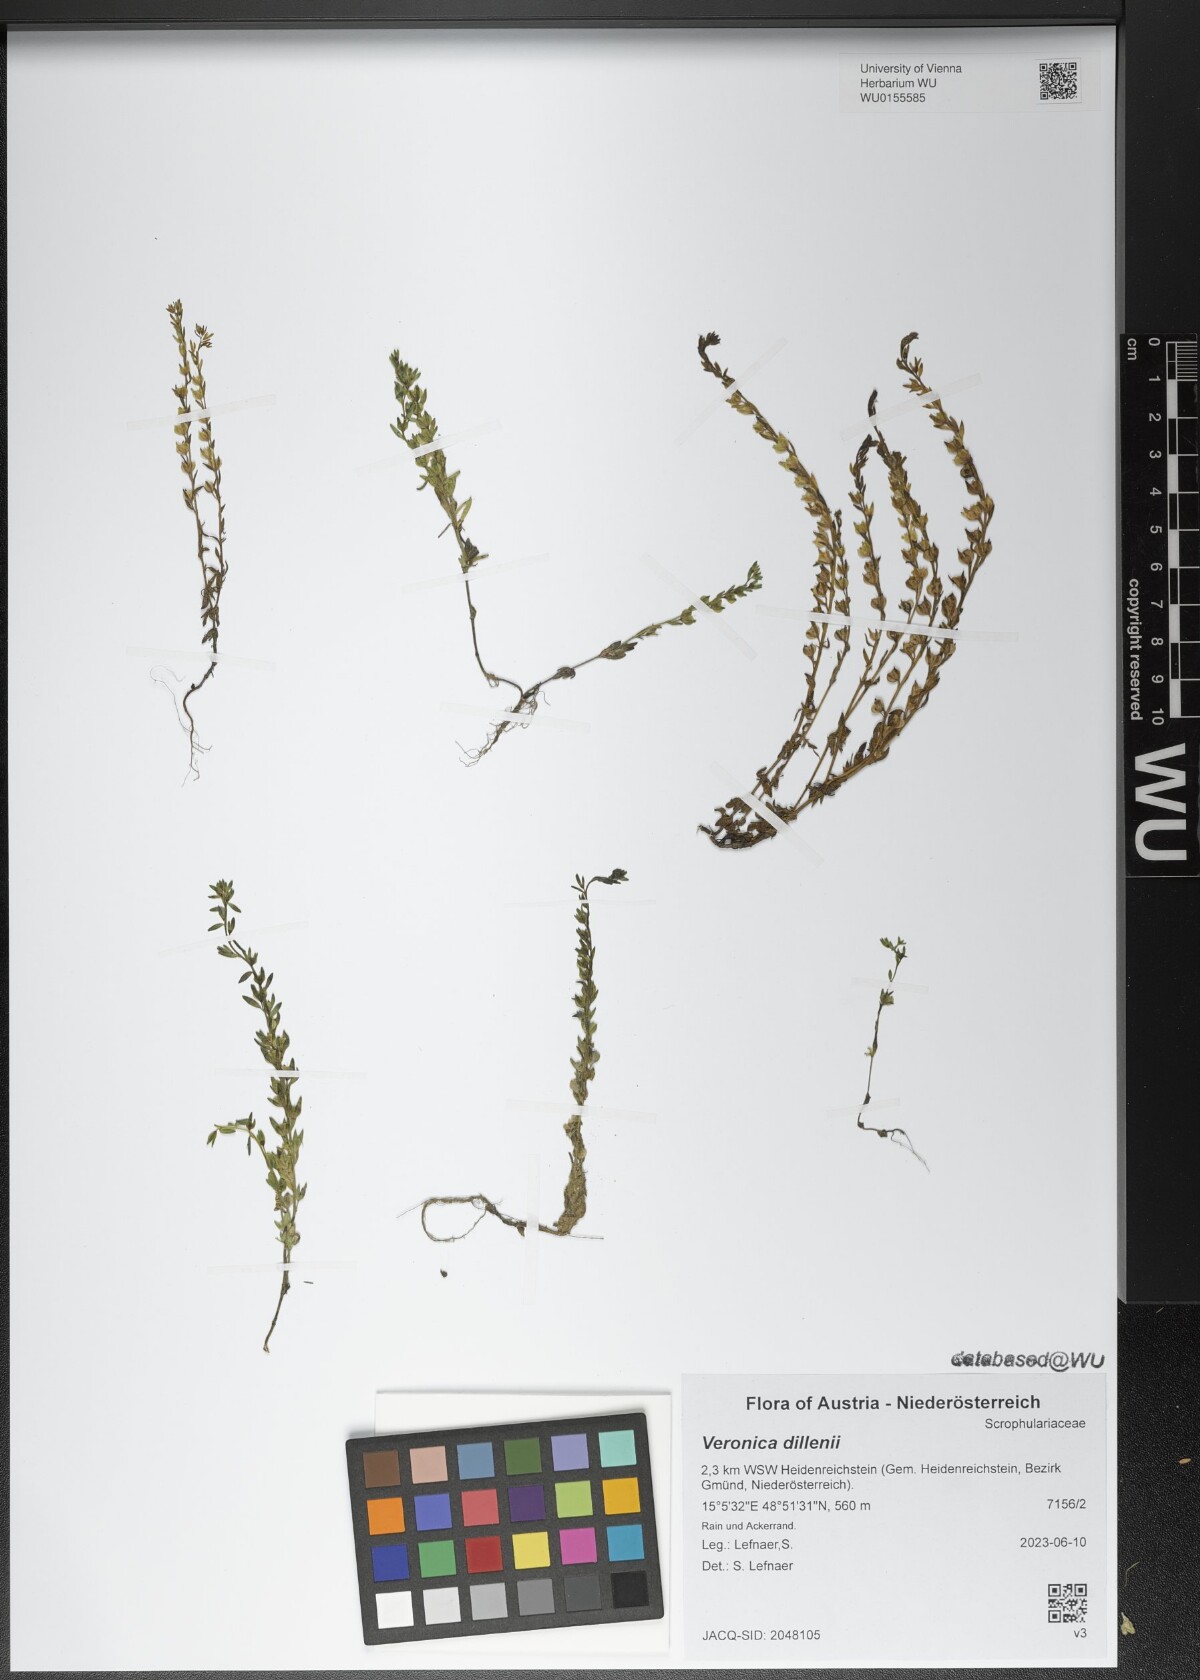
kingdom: Plantae
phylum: Tracheophyta
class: Magnoliopsida
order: Lamiales
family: Plantaginaceae
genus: Veronica
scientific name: Veronica dillenii
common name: Dillenius' speedwell
